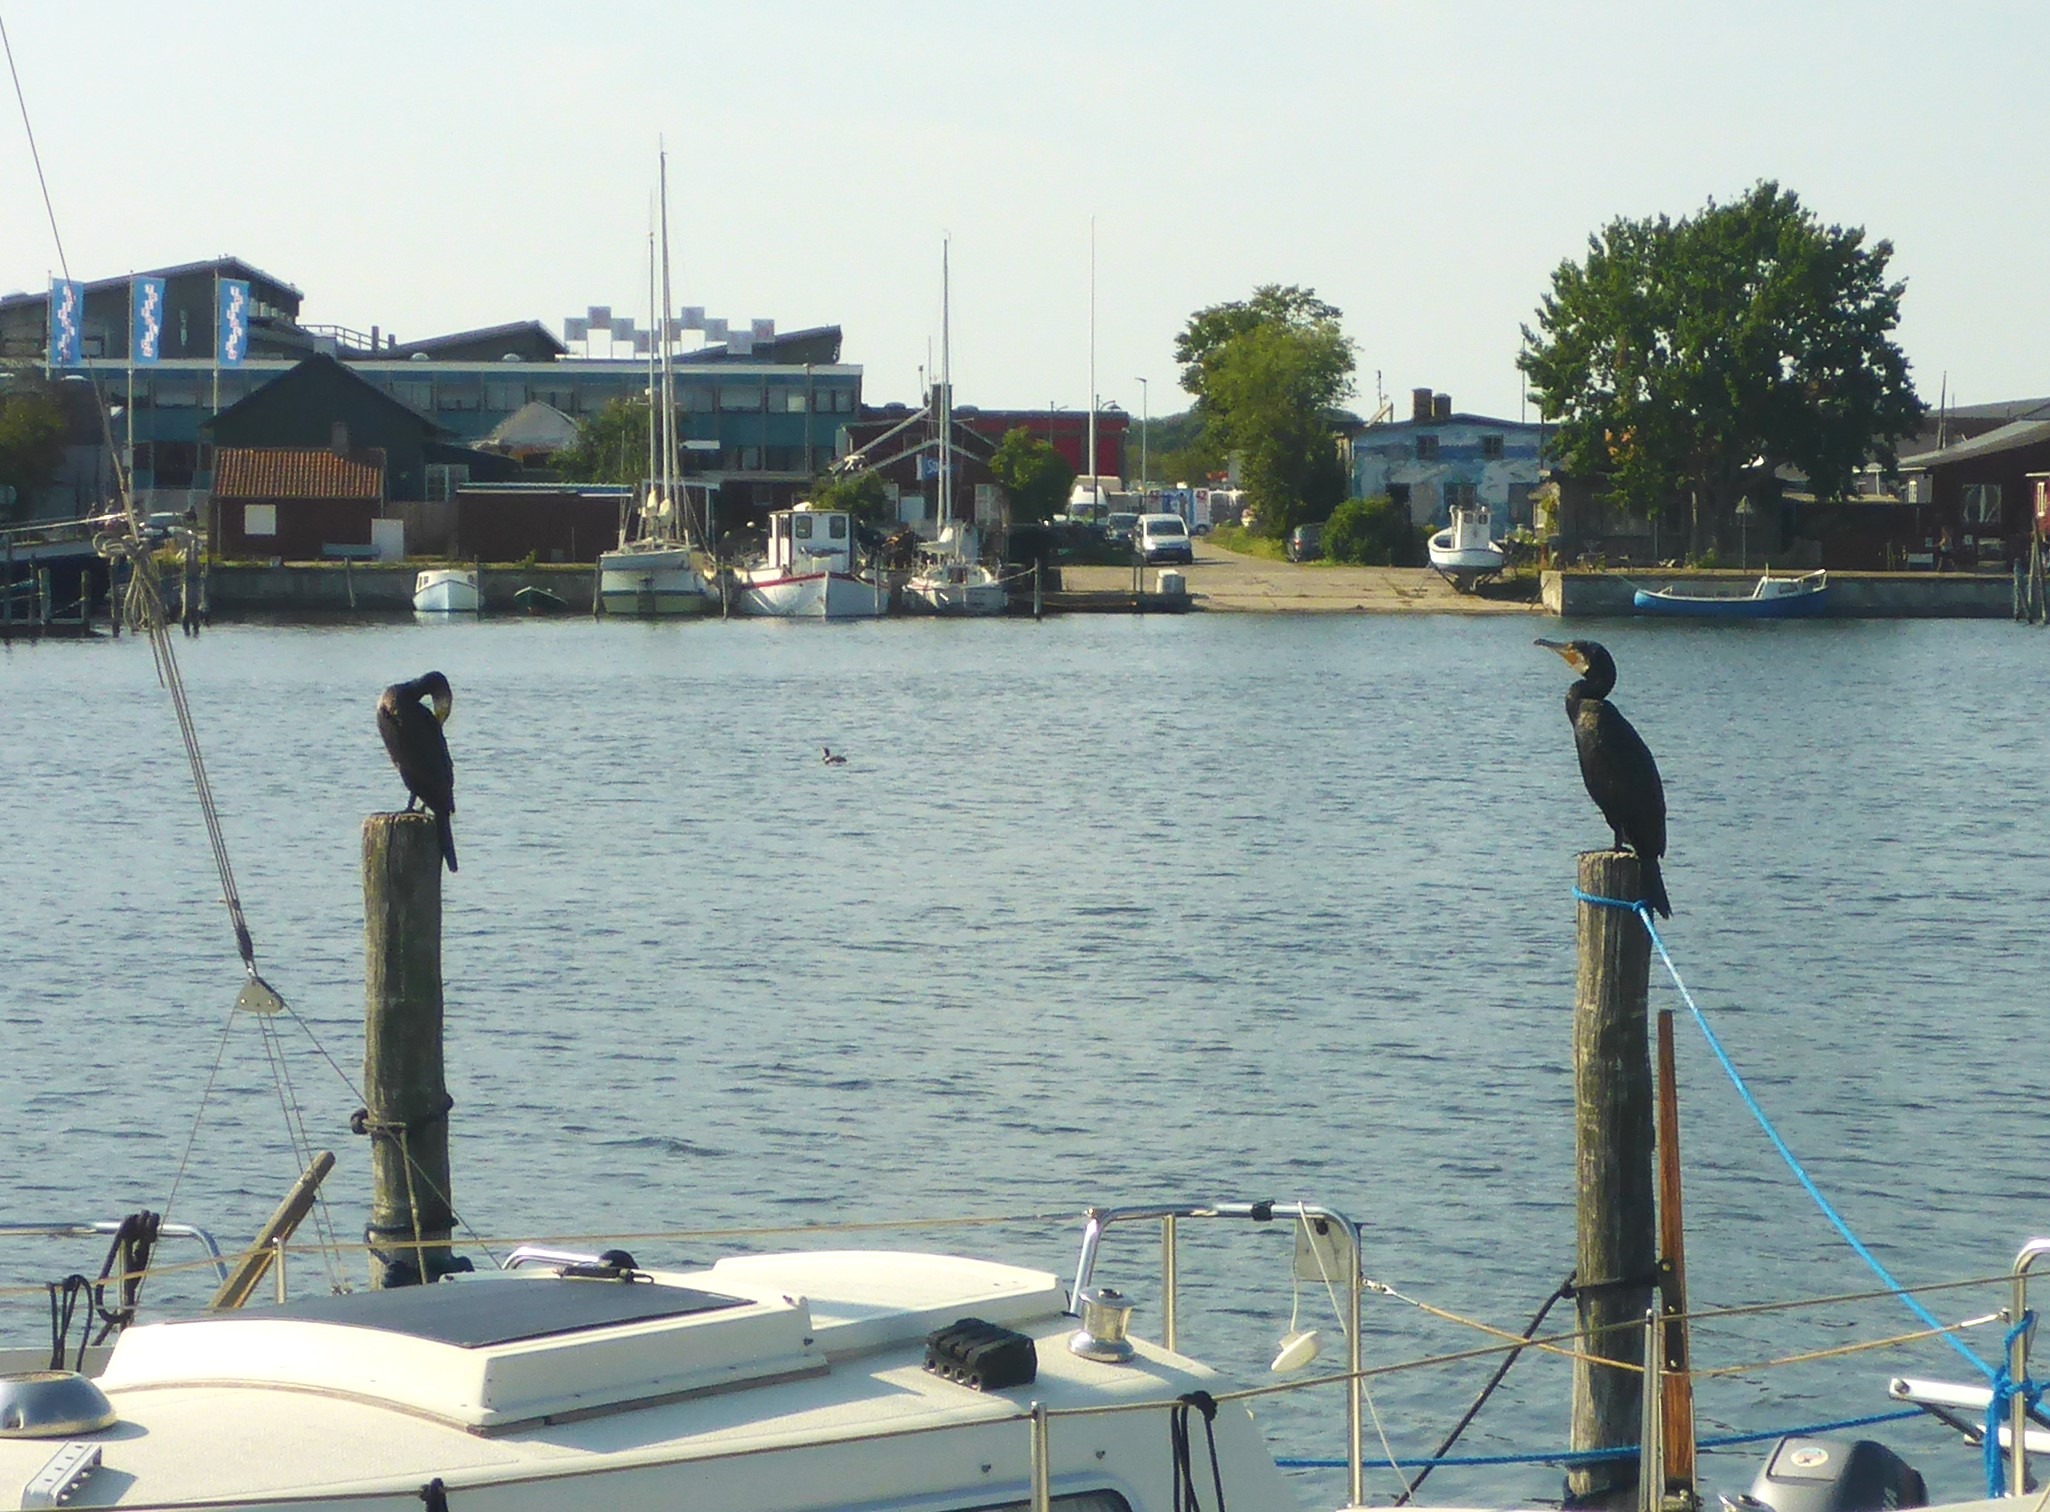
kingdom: Animalia
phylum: Chordata
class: Aves
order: Suliformes
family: Phalacrocoracidae
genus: Phalacrocorax
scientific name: Phalacrocorax carbo
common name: Skarv
